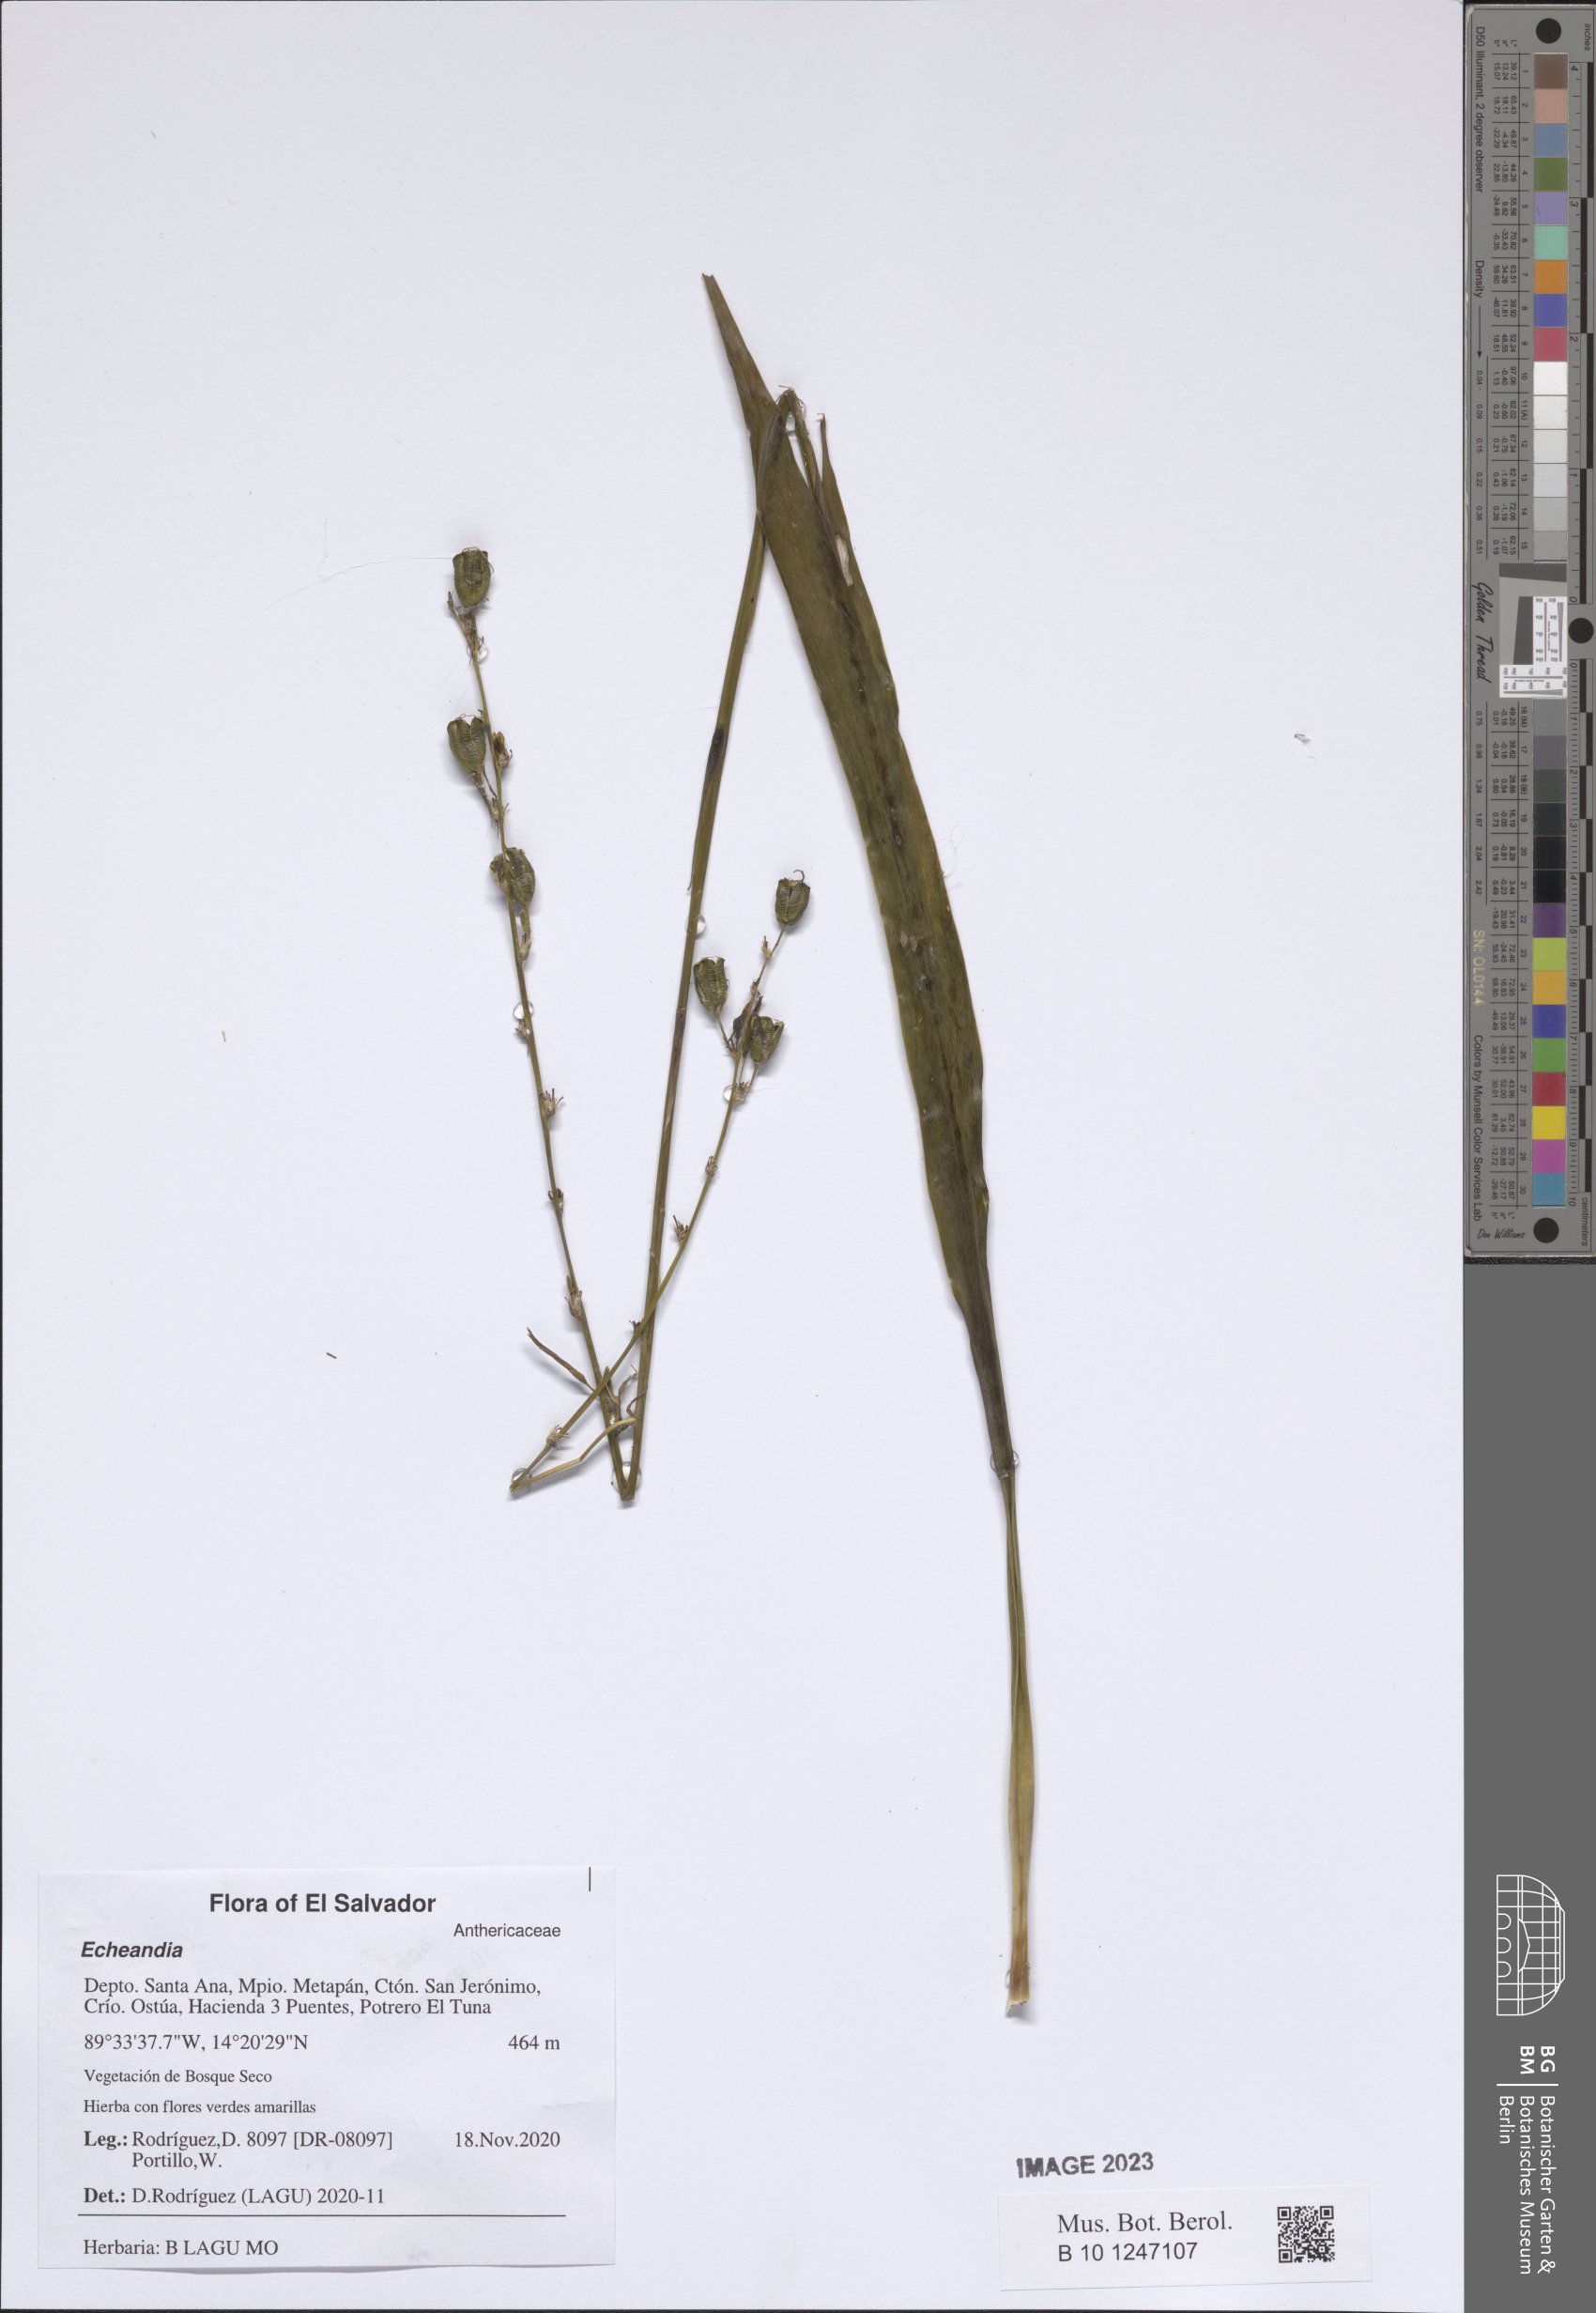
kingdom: Plantae
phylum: Tracheophyta
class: Liliopsida
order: Asparagales
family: Asparagaceae
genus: Echeandia
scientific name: Echeandia
